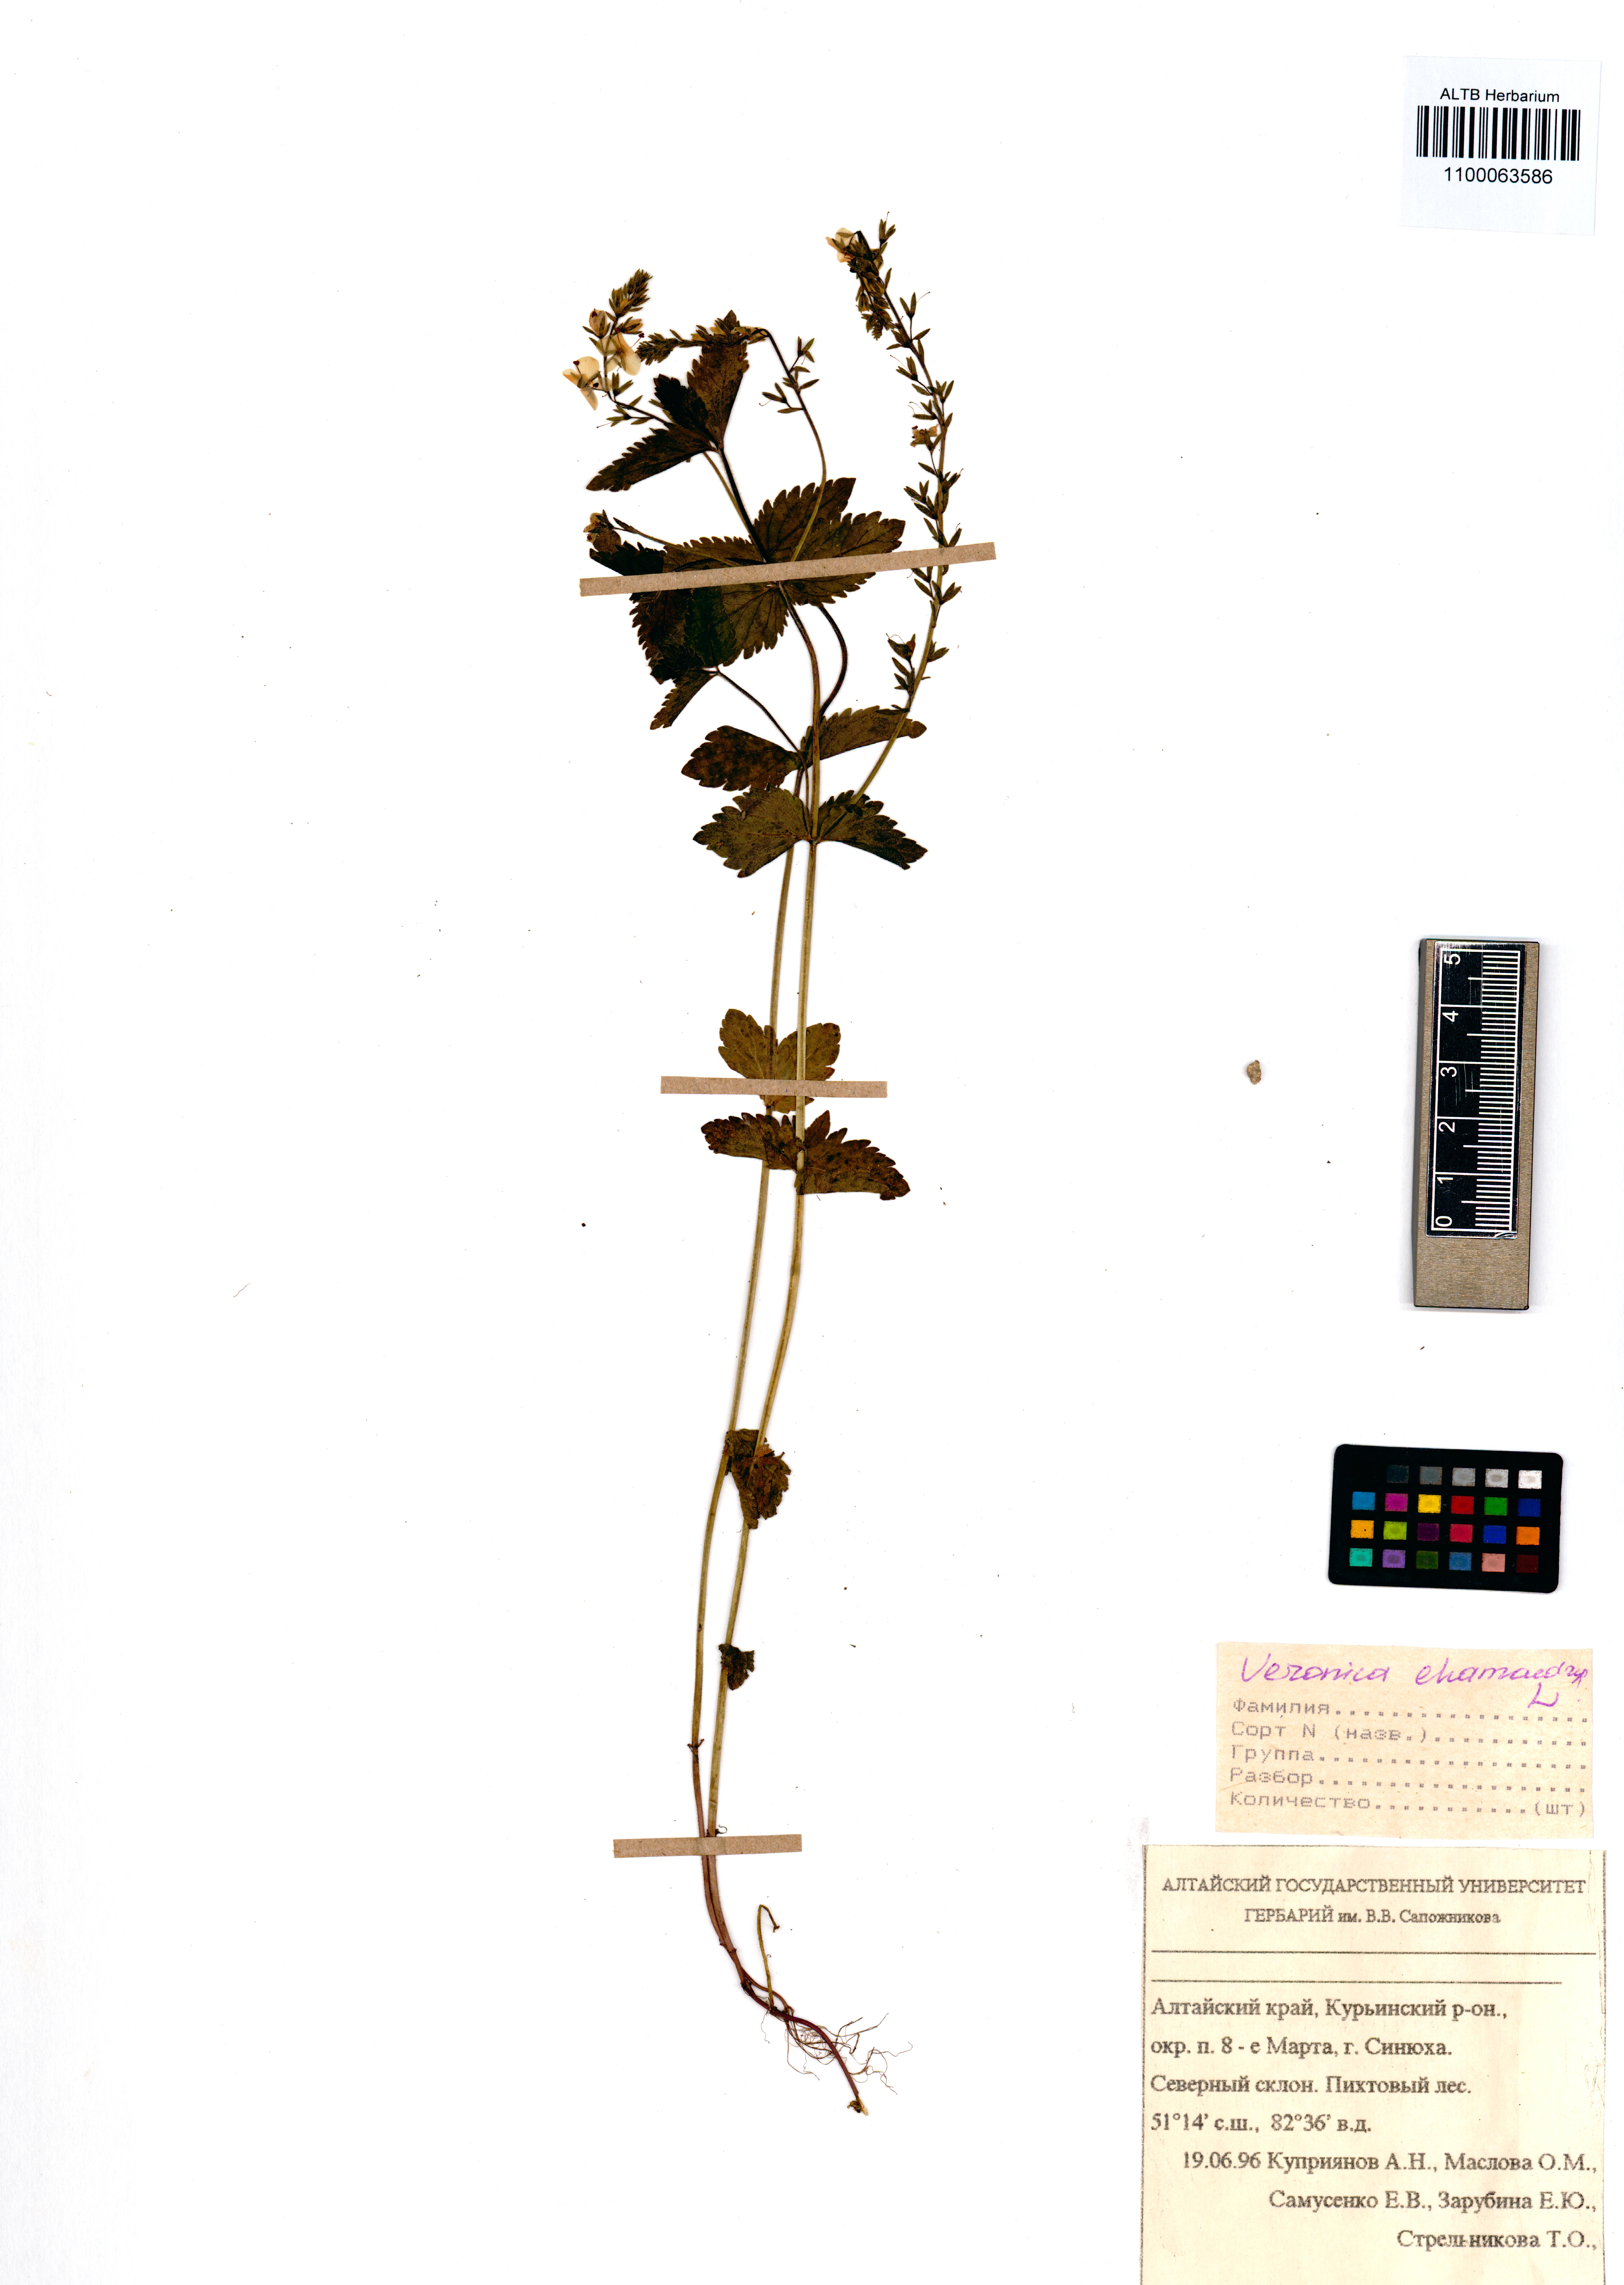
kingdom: Plantae
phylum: Tracheophyta
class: Magnoliopsida
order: Lamiales
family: Plantaginaceae
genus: Veronica
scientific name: Veronica chamaedrys
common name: Germander speedwell
